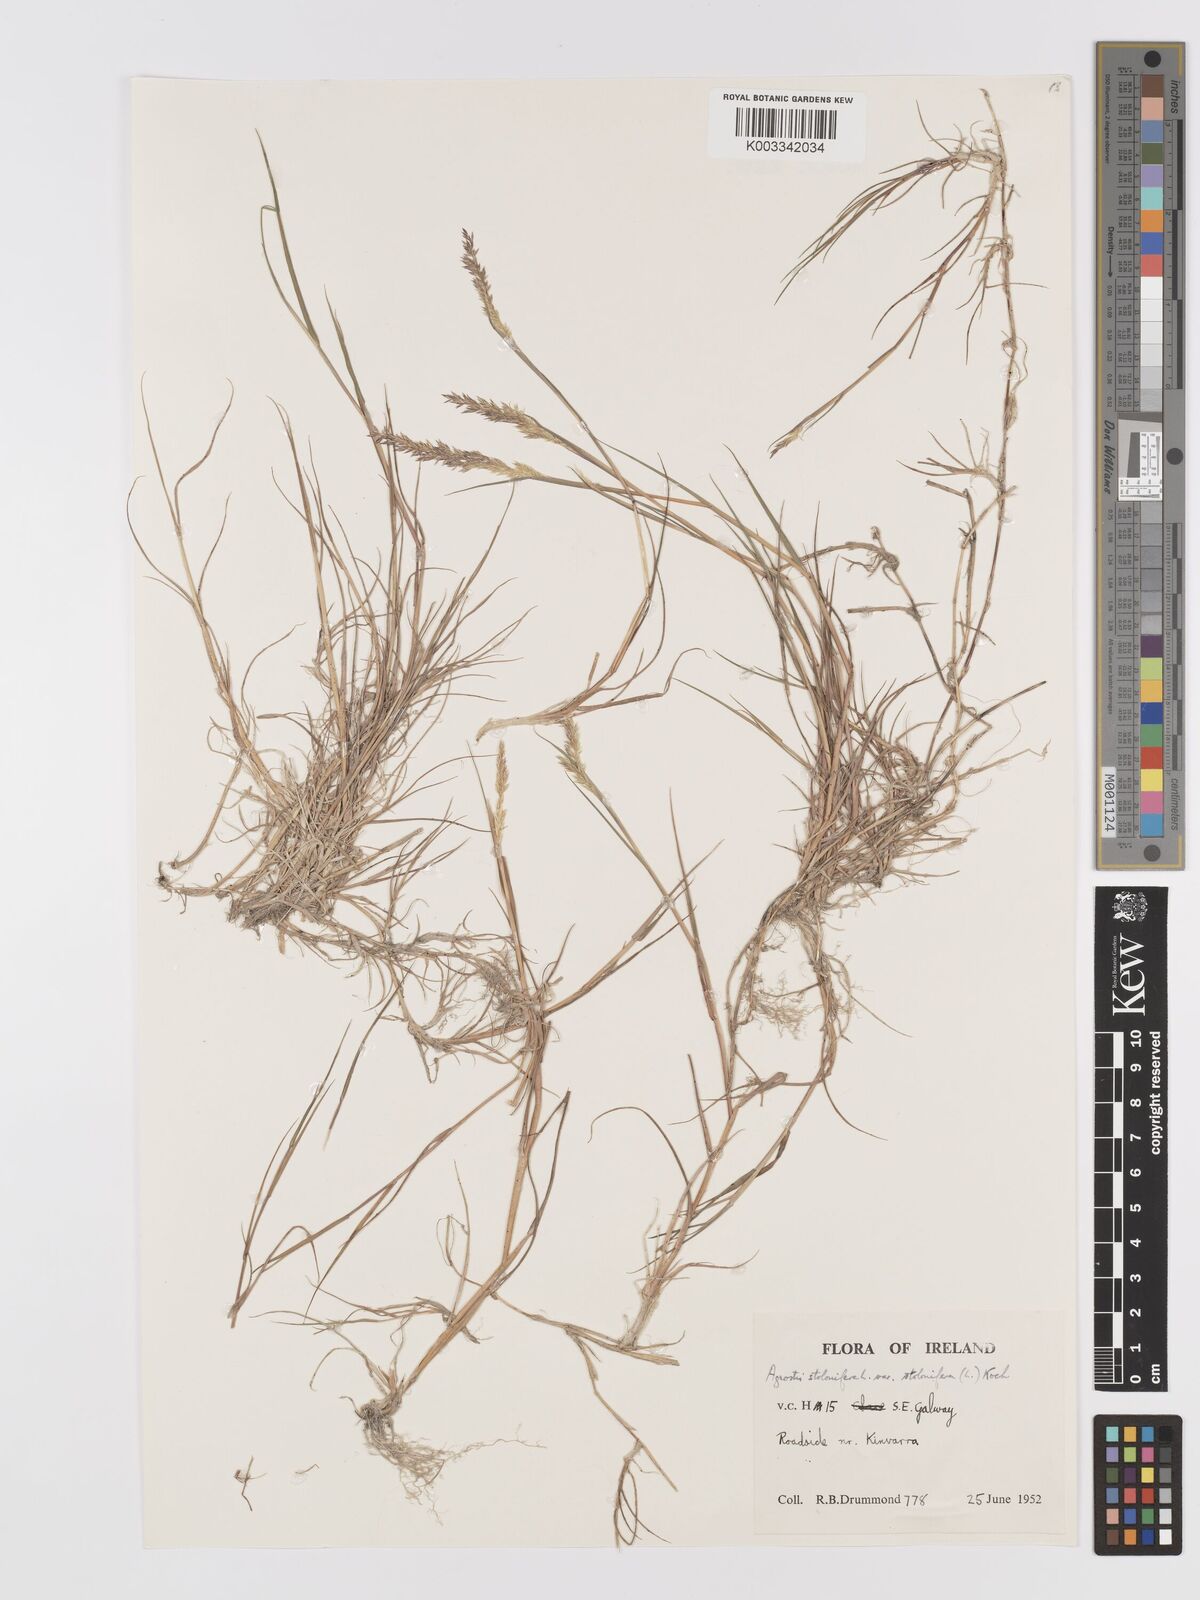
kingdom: Plantae
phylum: Tracheophyta
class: Liliopsida
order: Poales
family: Poaceae
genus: Agrostis
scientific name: Agrostis stolonifera
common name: Creeping bentgrass
